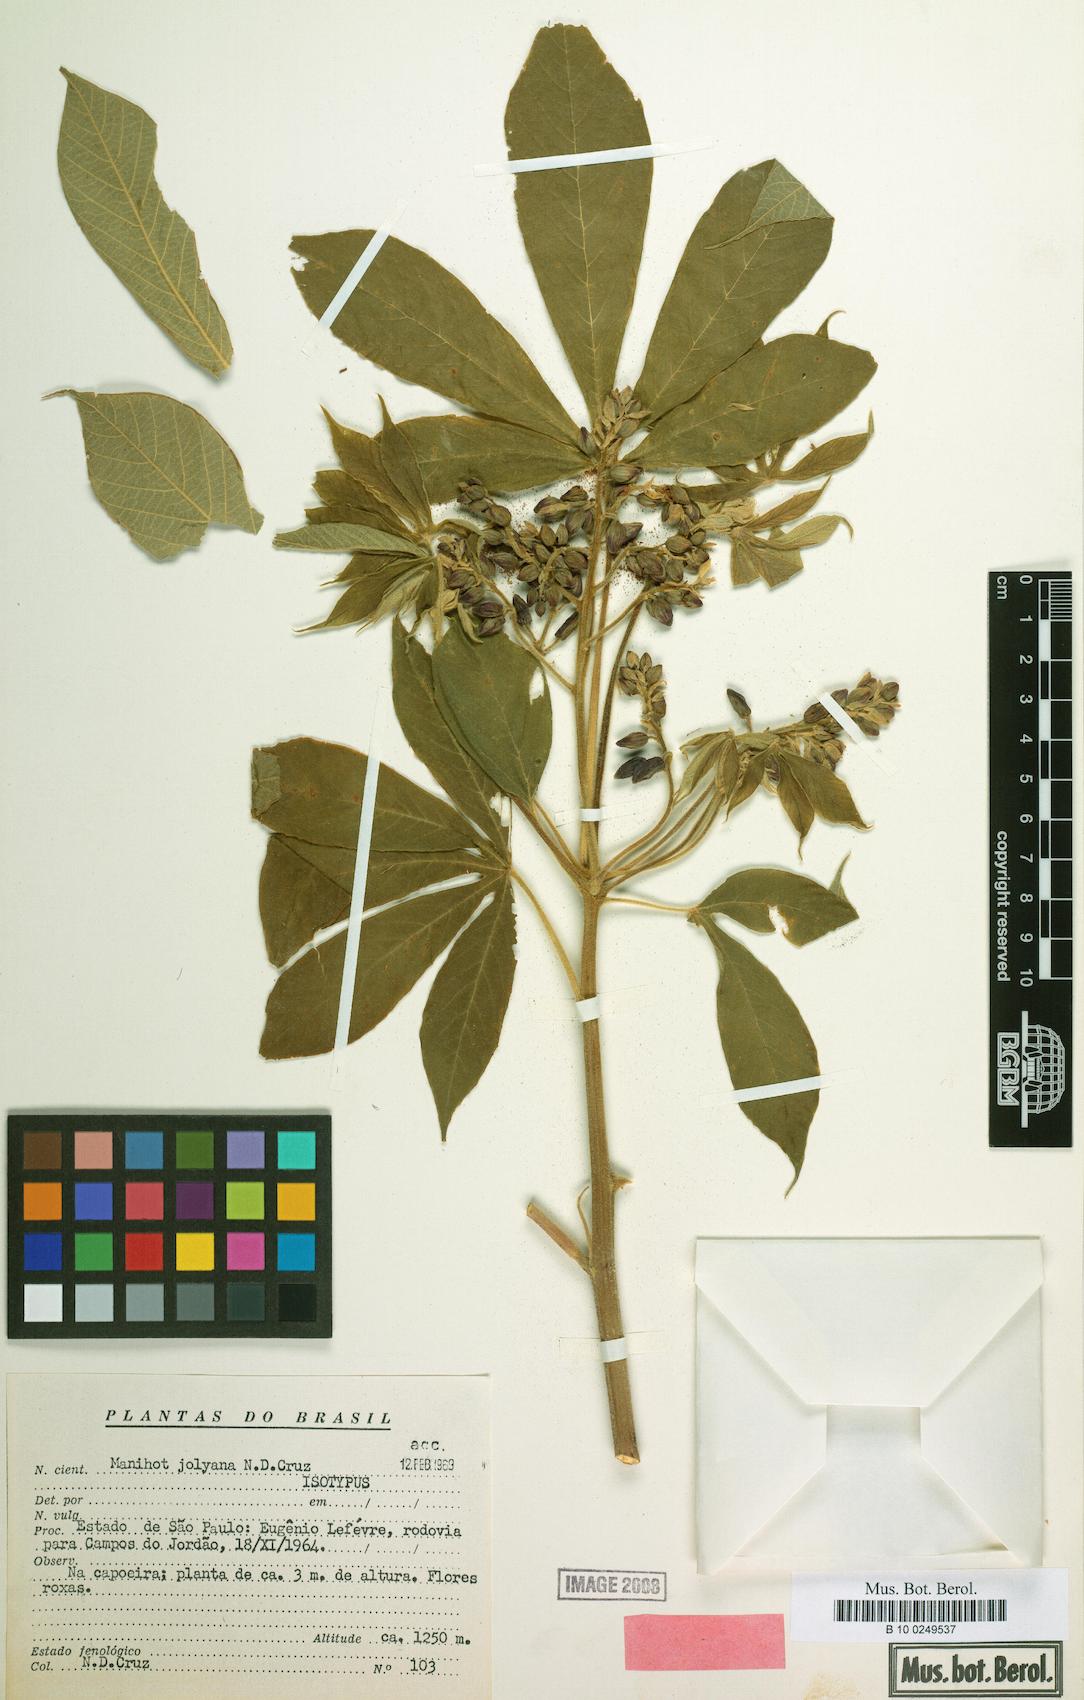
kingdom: Plantae
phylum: Tracheophyta
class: Magnoliopsida
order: Malpighiales
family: Euphorbiaceae
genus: Manihot
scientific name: Manihot jolyana
